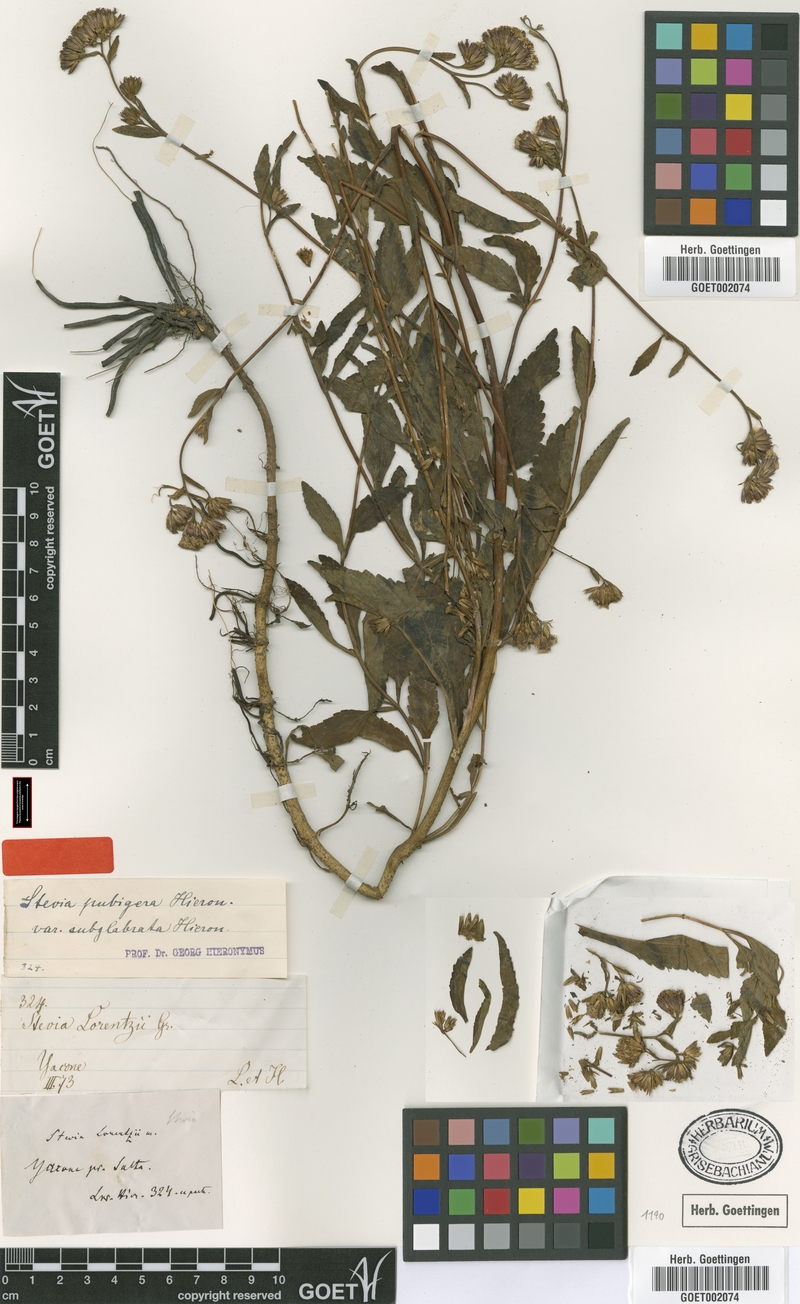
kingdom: Plantae
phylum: Tracheophyta
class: Magnoliopsida
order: Asterales
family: Asteraceae
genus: Stevia
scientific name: Stevia breviaristata
